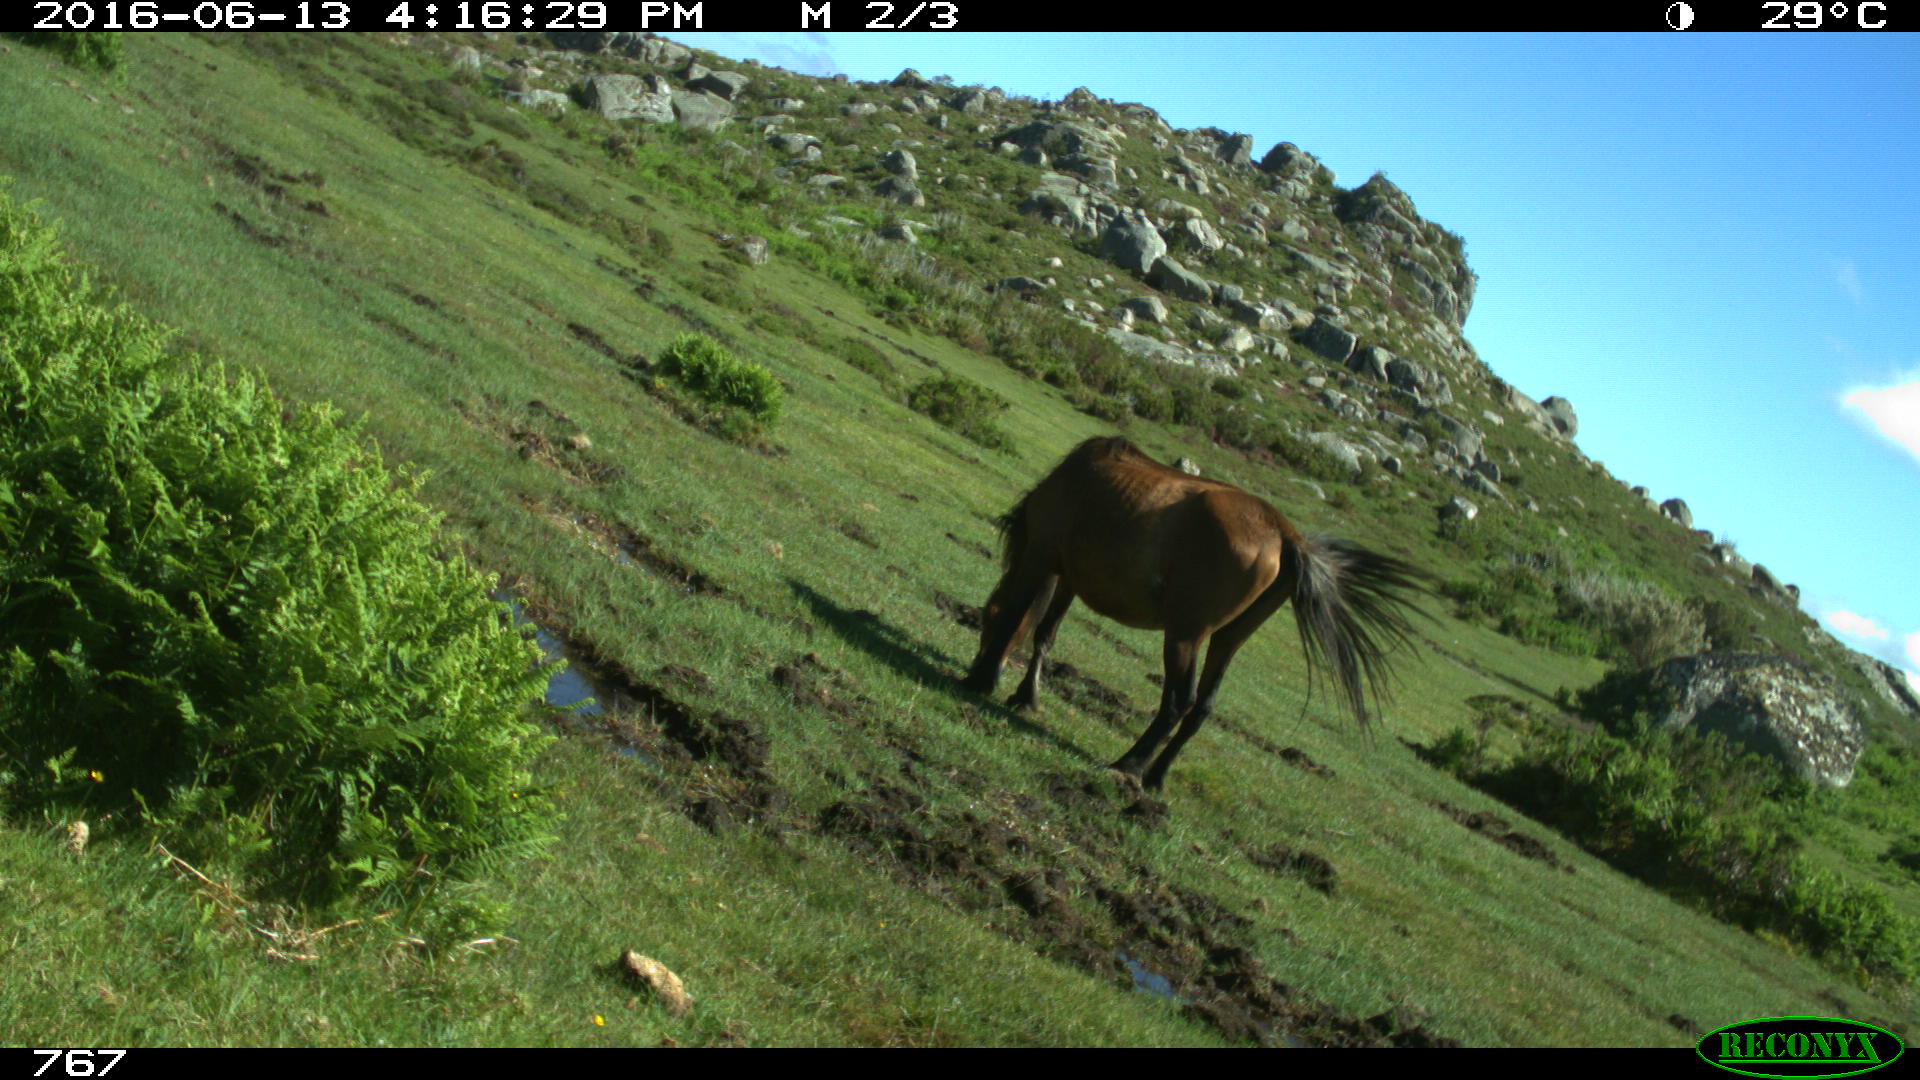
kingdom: Animalia
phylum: Chordata
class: Mammalia
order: Perissodactyla
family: Equidae
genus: Equus
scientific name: Equus caballus
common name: Horse
